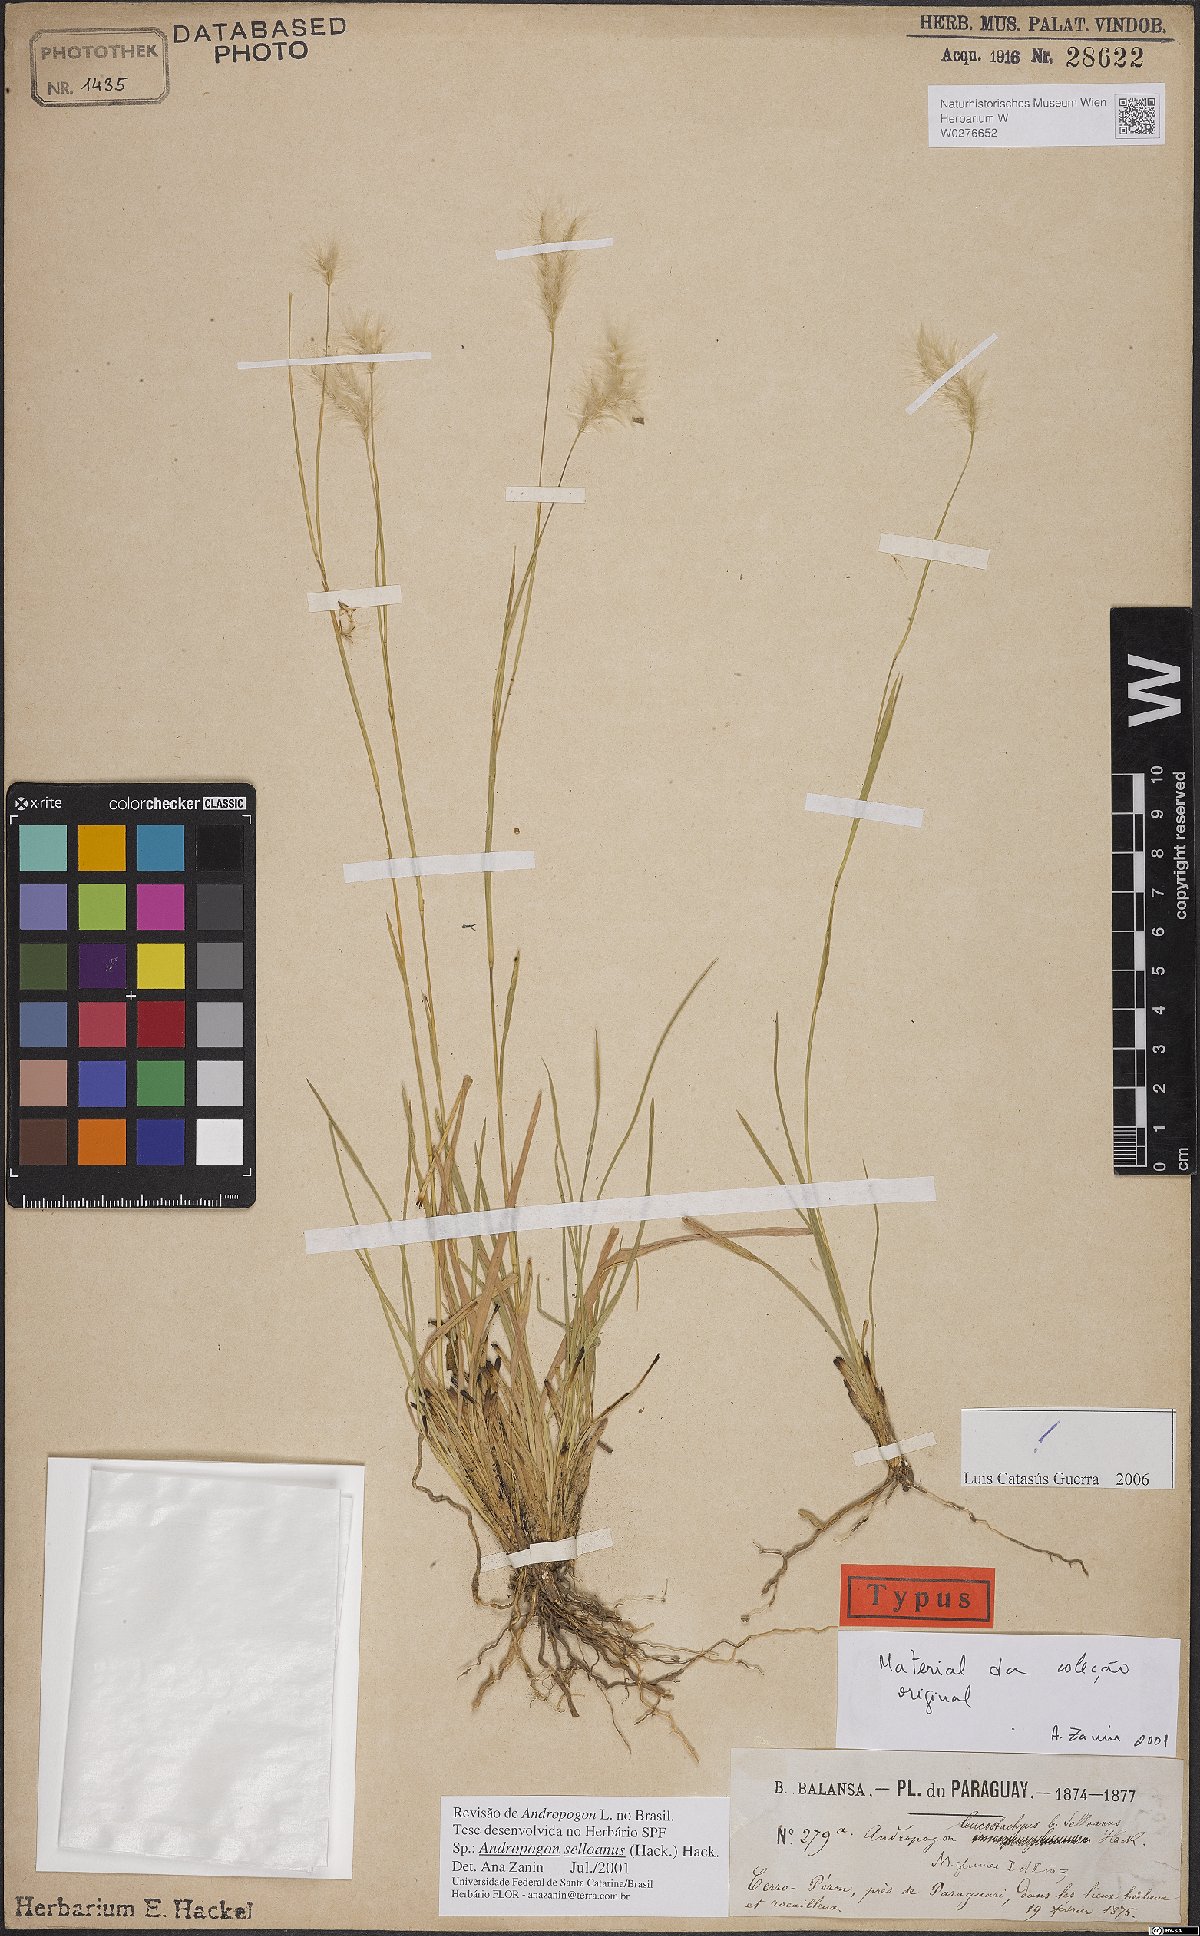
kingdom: Plantae
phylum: Tracheophyta
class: Liliopsida
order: Poales
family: Poaceae
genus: Andropogon
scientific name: Andropogon selloanus
